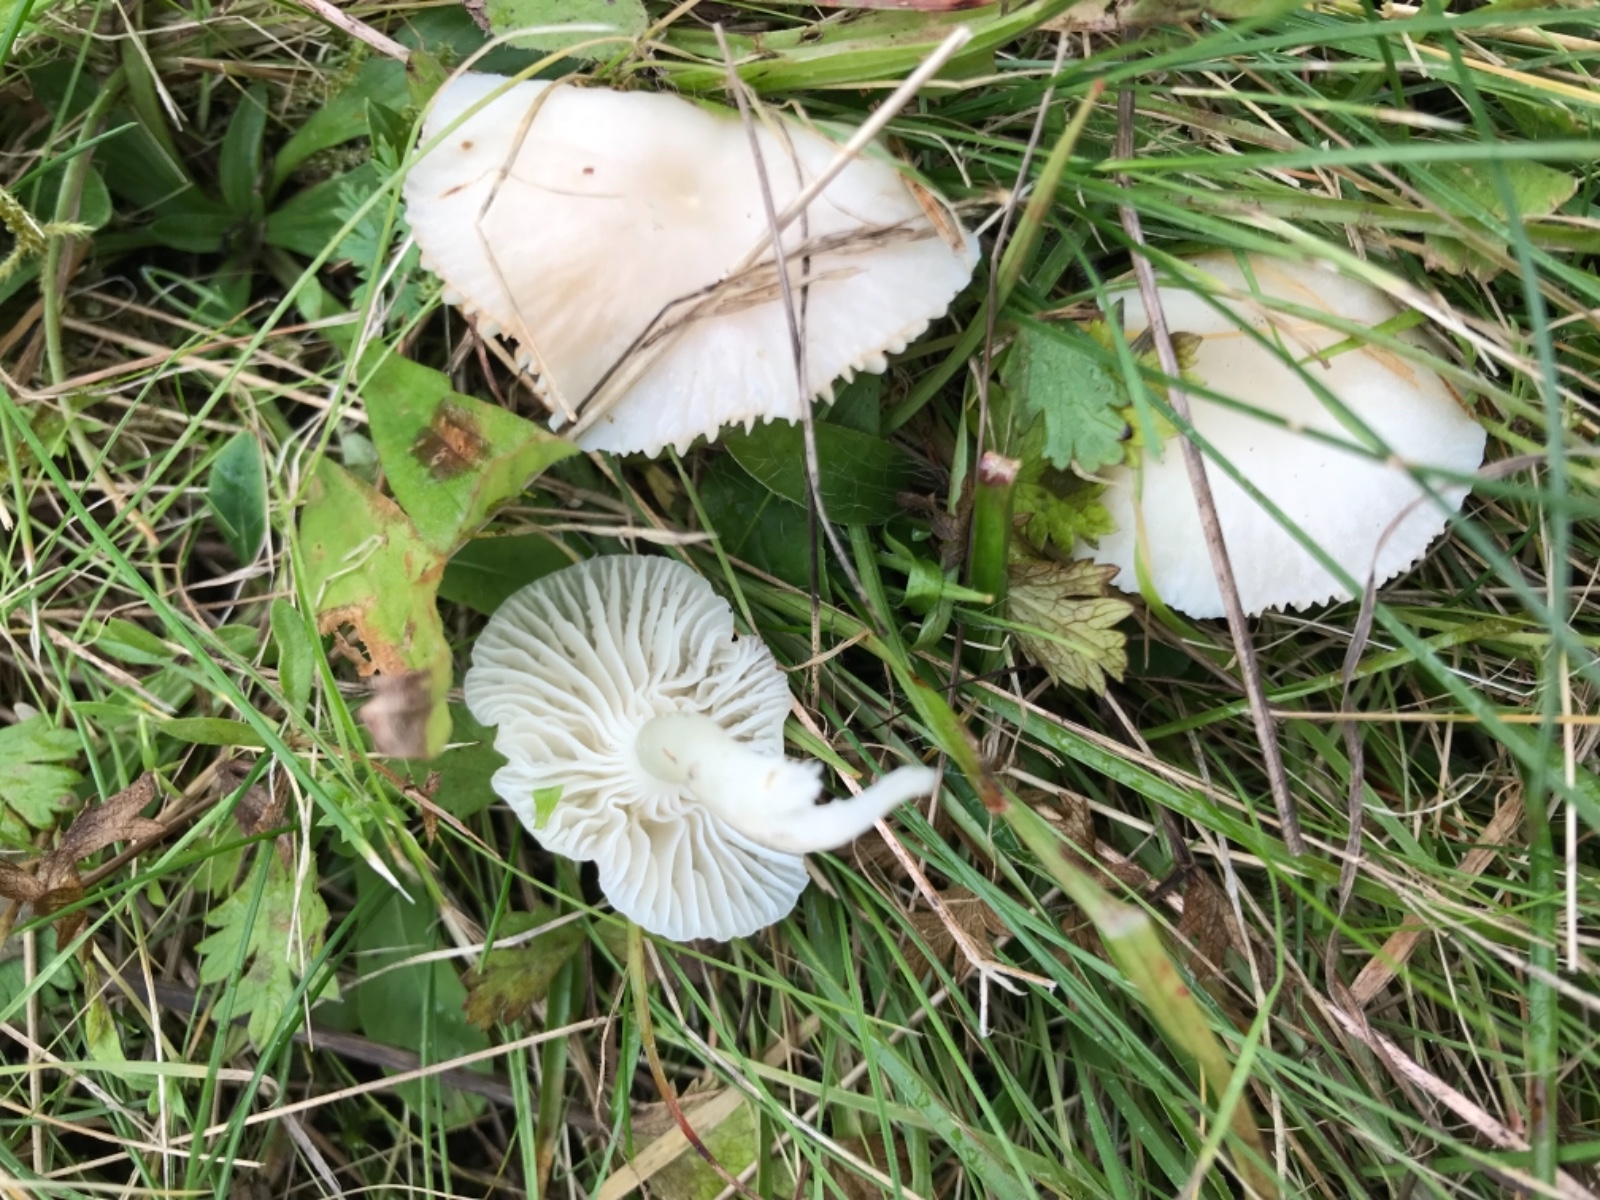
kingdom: Fungi
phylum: Basidiomycota
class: Agaricomycetes
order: Agaricales
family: Hygrophoraceae
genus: Cuphophyllus
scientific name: Cuphophyllus virgineus
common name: snehvid vokshat
